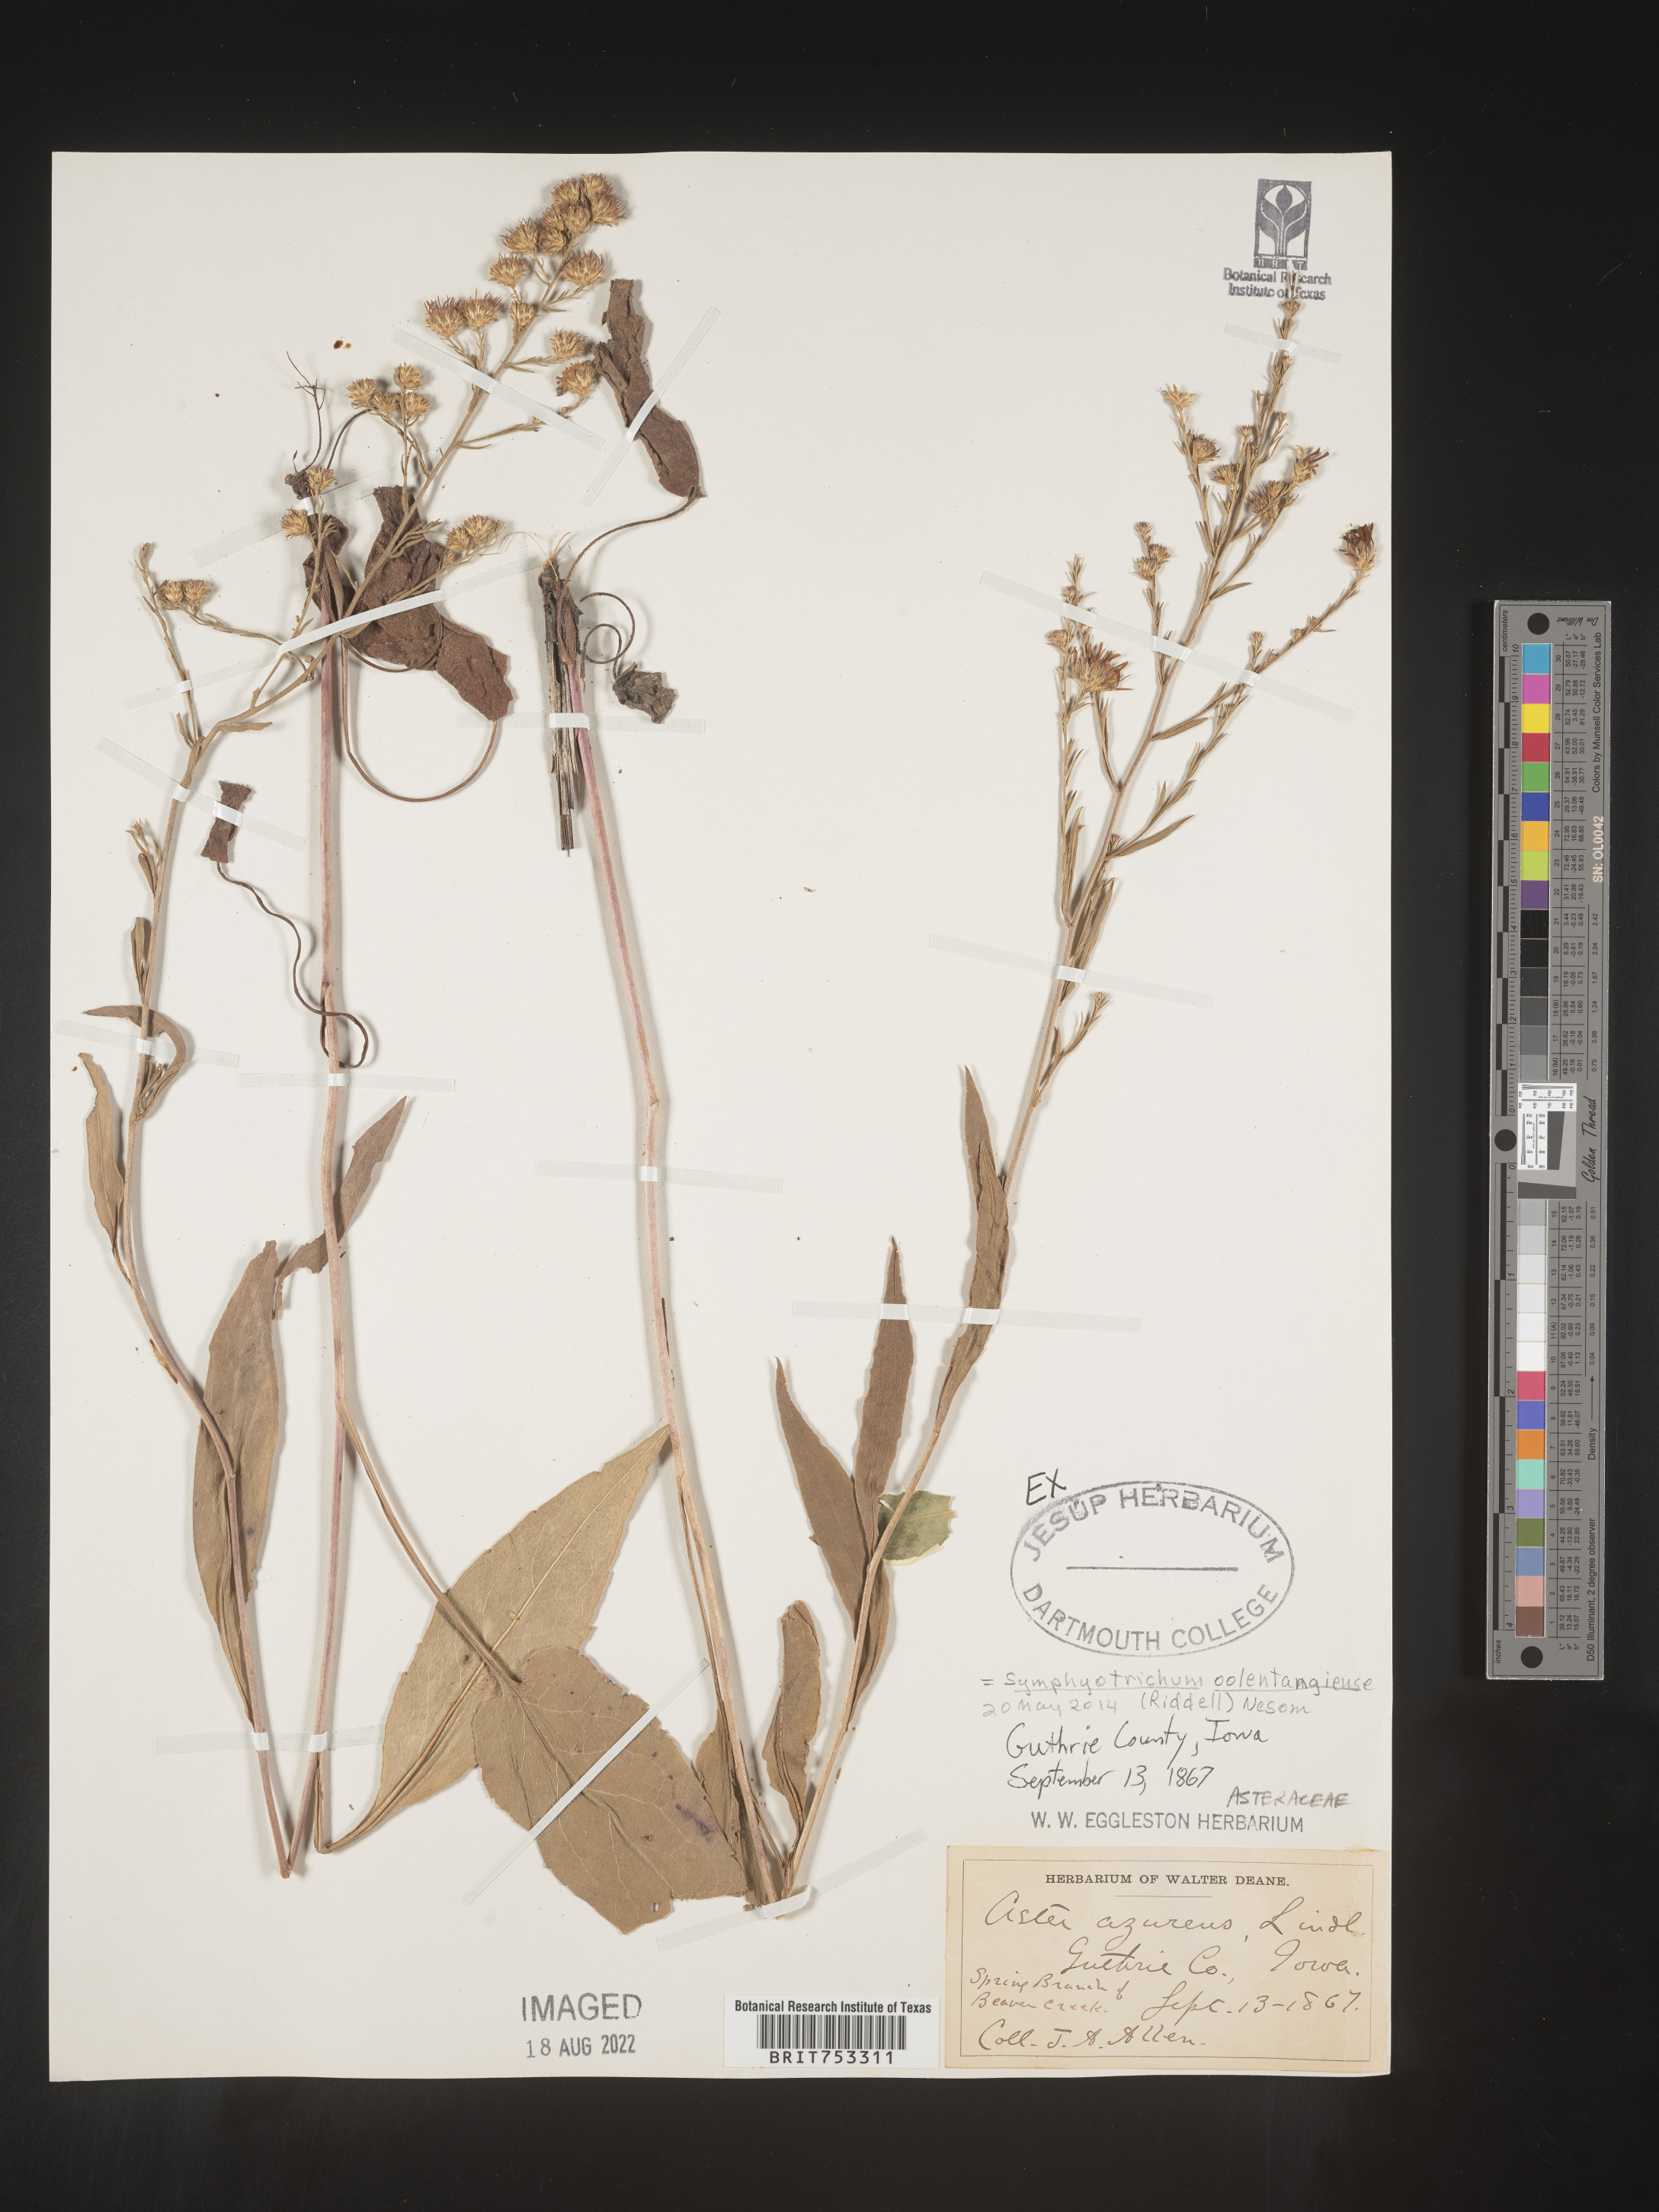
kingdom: Plantae
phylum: Tracheophyta
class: Magnoliopsida
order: Asterales
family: Asteraceae
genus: Symphyotrichum
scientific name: Symphyotrichum oolentangiense
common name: Azure aster
